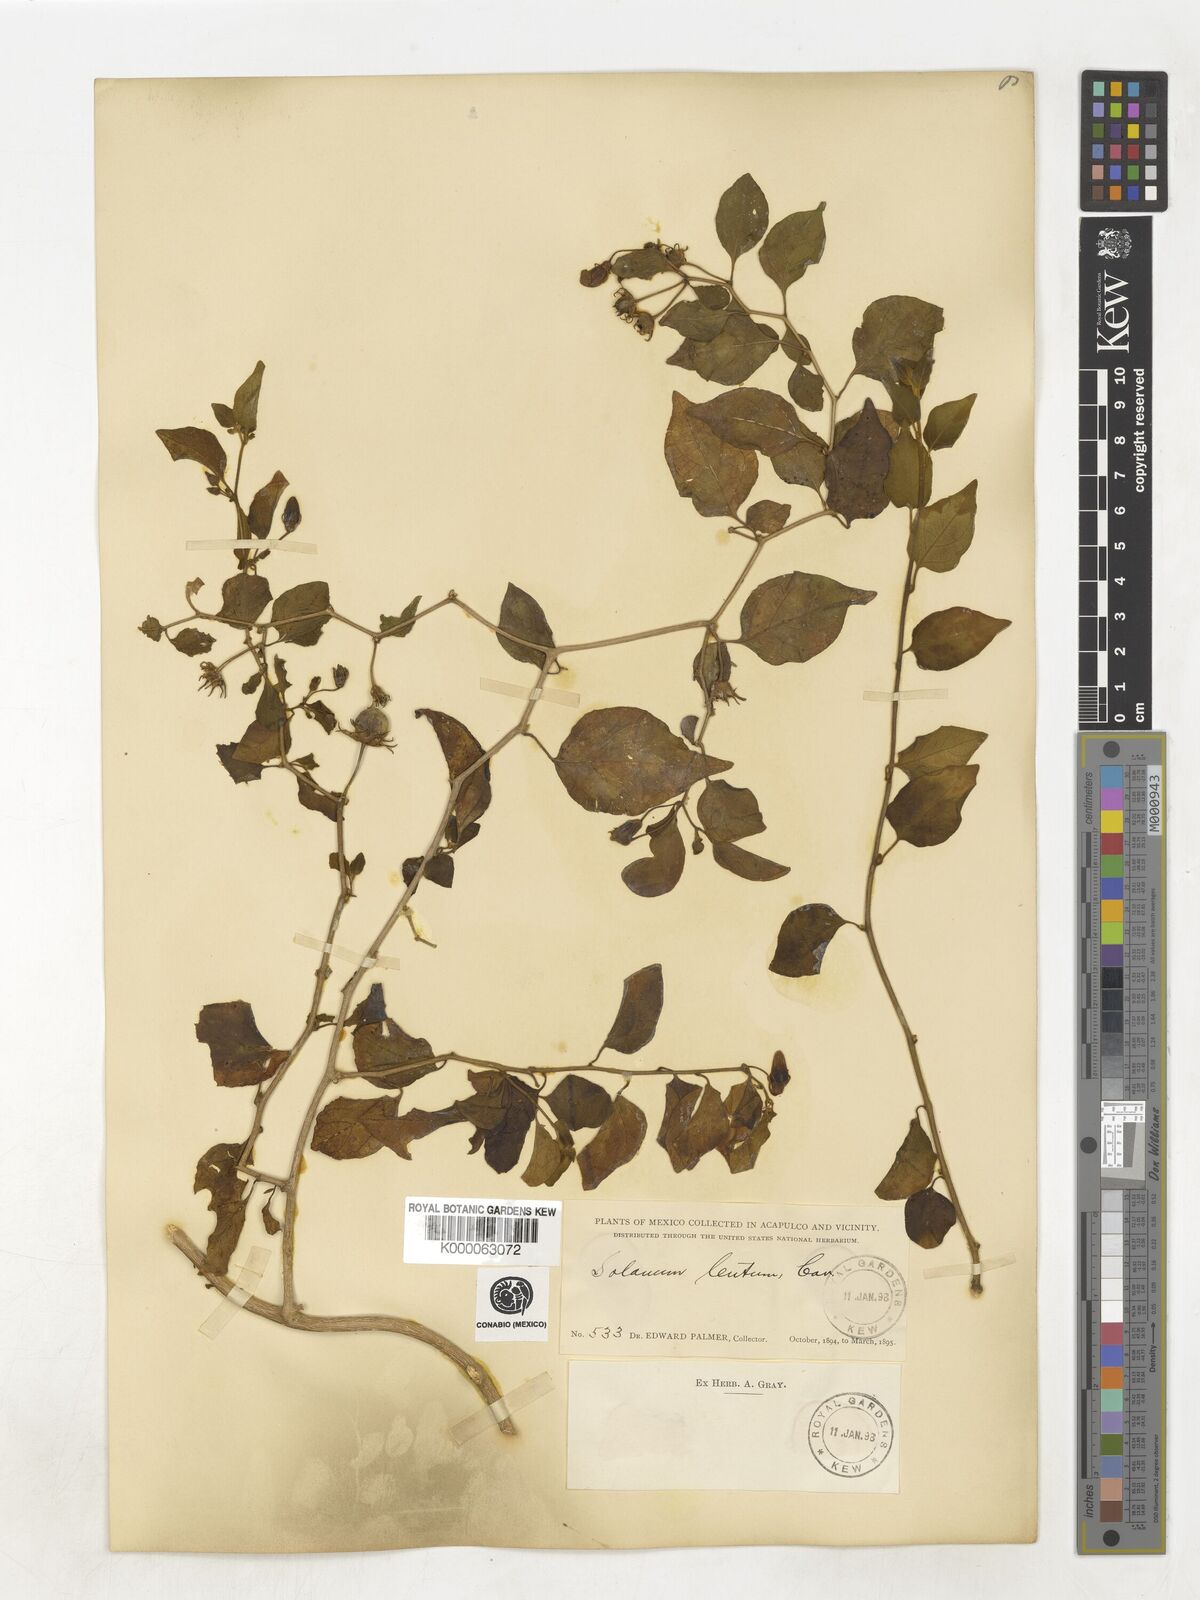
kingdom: Plantae
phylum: Tracheophyta
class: Magnoliopsida
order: Solanales
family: Solanaceae
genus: Lycianthes
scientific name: Lycianthes scandens
